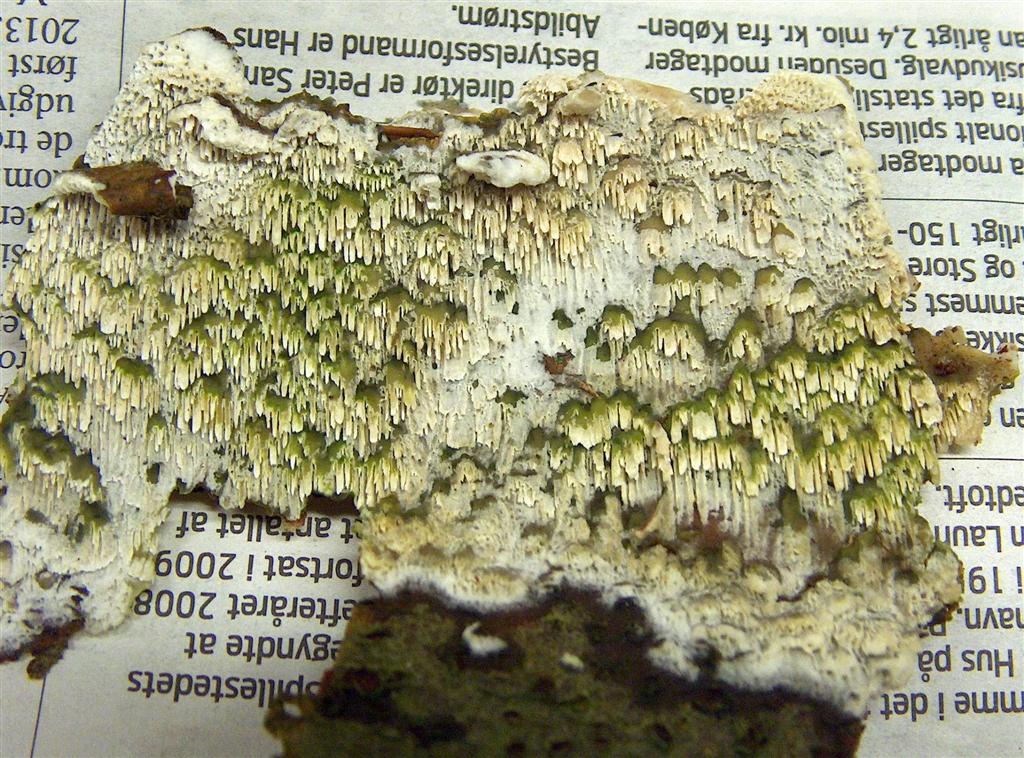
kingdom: Fungi
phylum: Basidiomycota
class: Agaricomycetes
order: Hymenochaetales
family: Schizoporaceae
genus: Schizopora
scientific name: Schizopora paradoxa
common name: hvid tandsvamp
